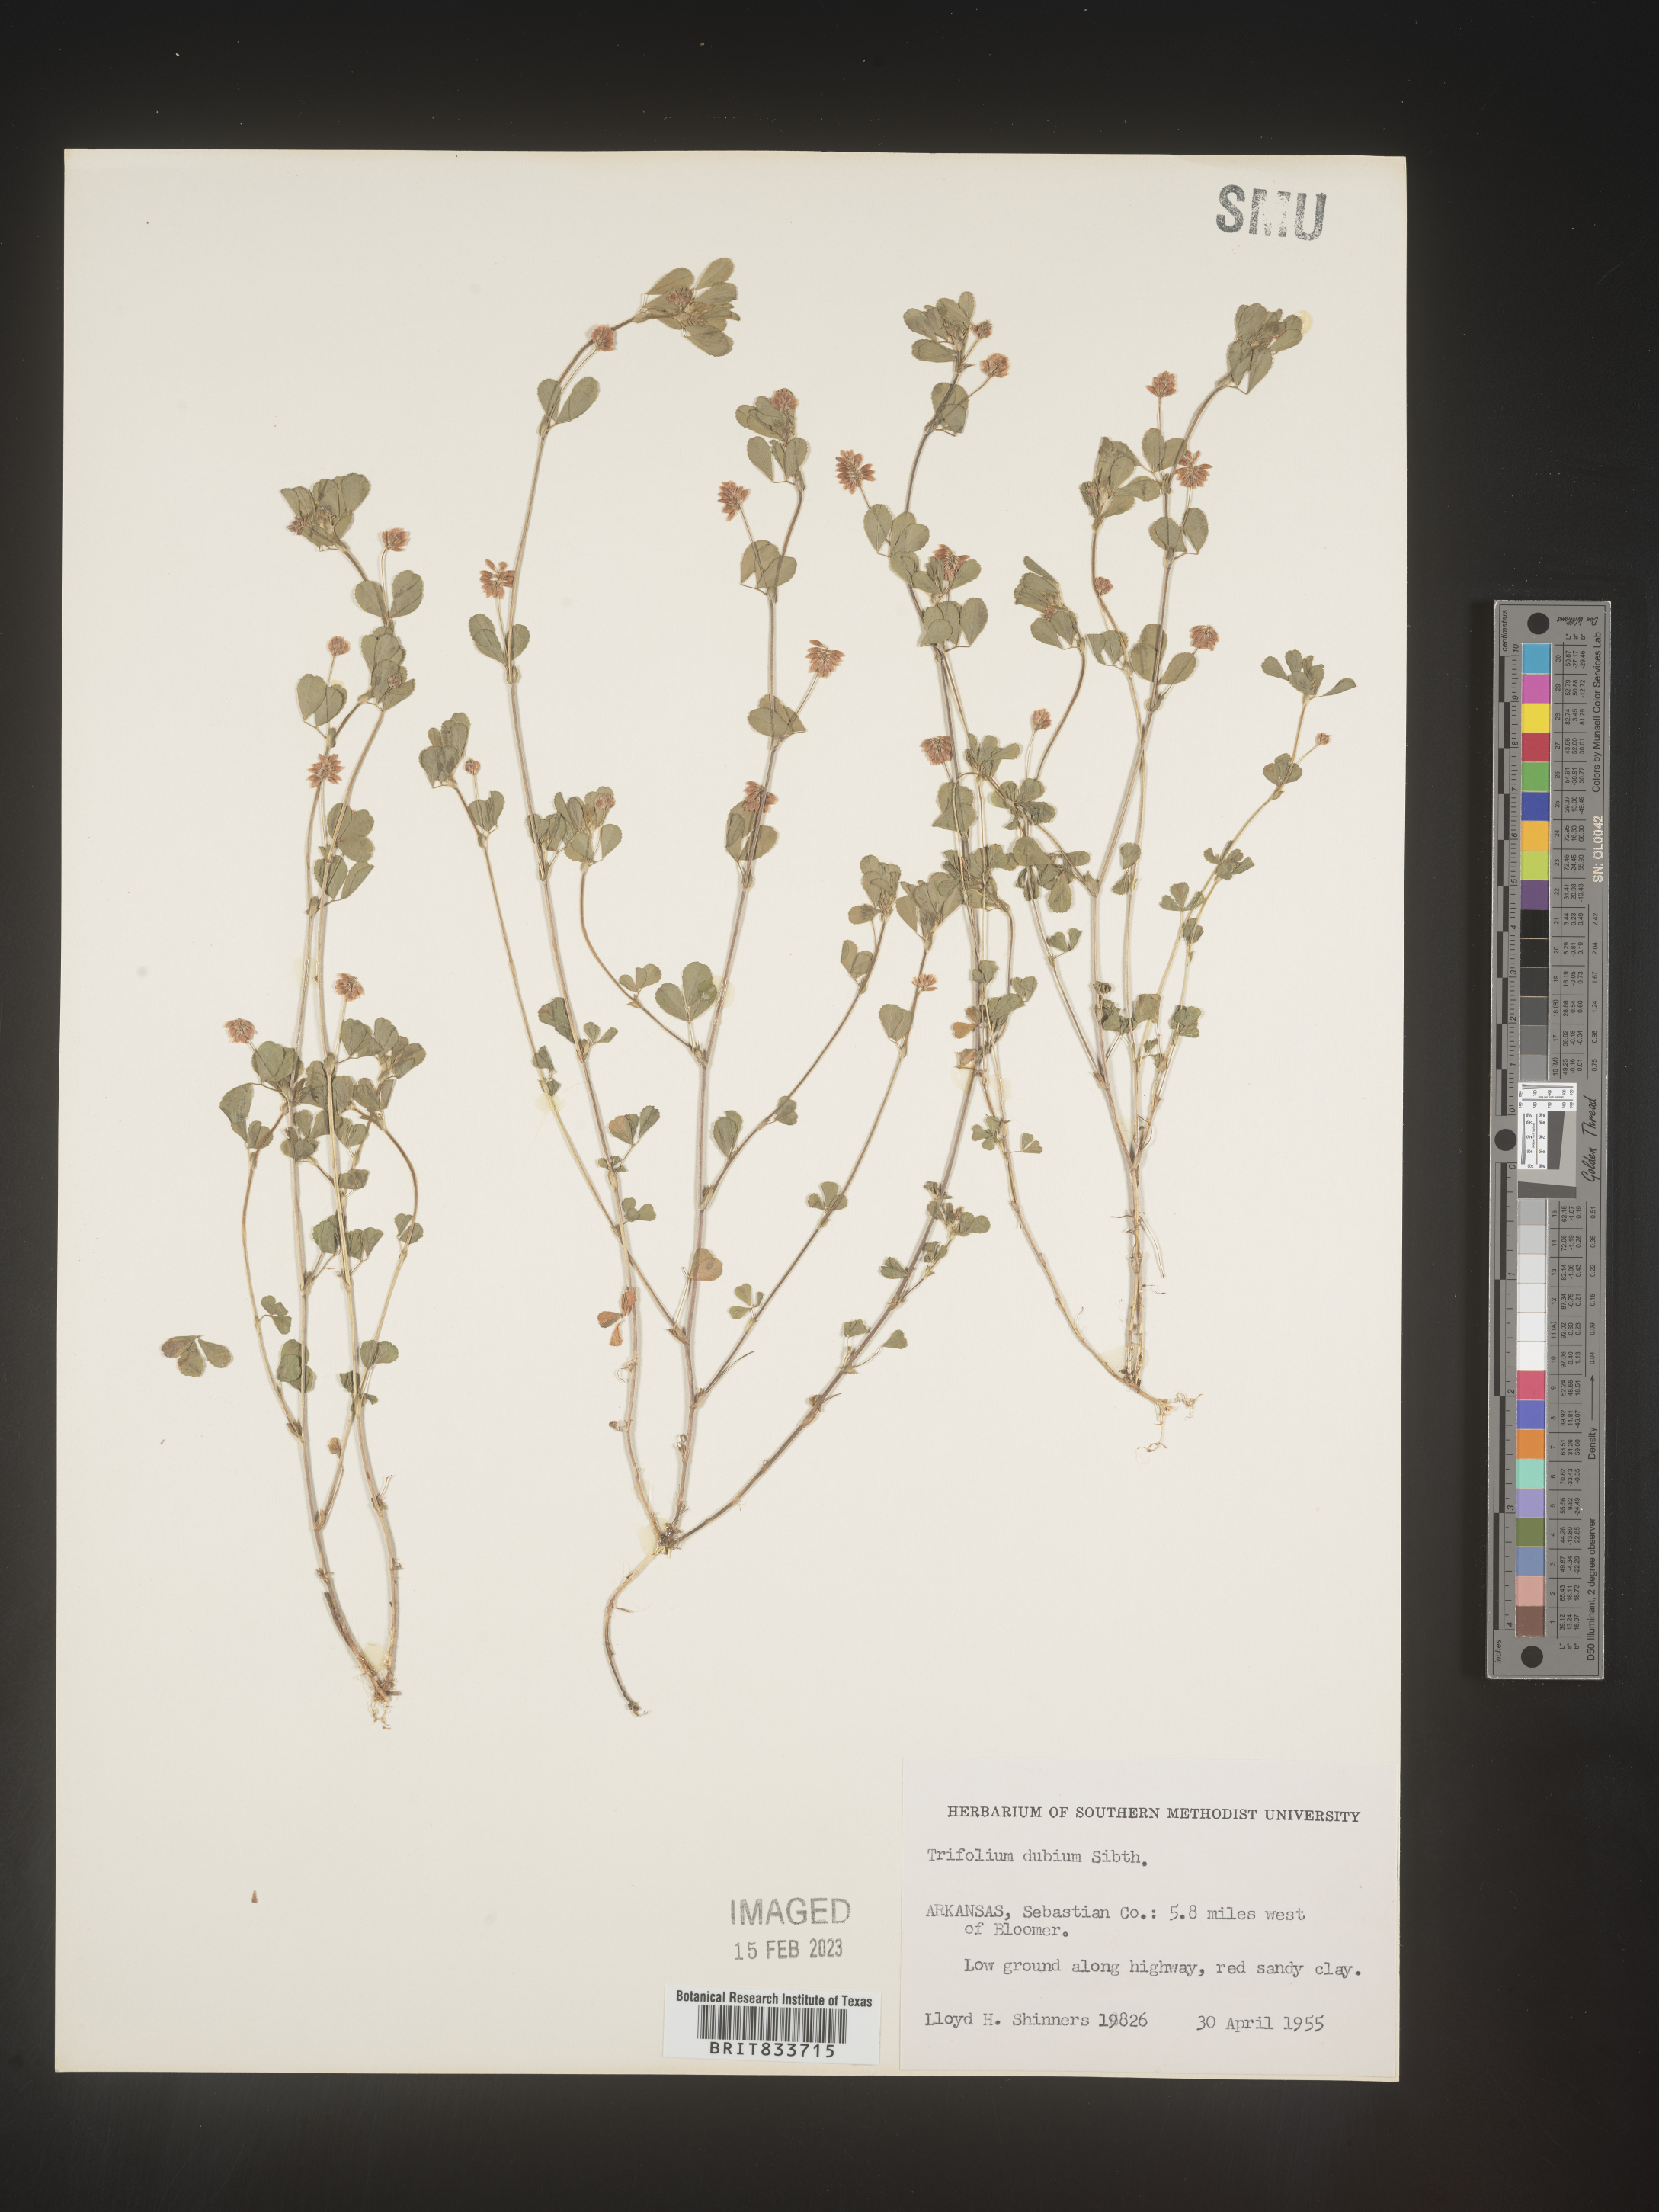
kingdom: Plantae
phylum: Tracheophyta
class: Magnoliopsida
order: Fabales
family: Fabaceae
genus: Trifolium
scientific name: Trifolium dubium
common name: Suckling clover
